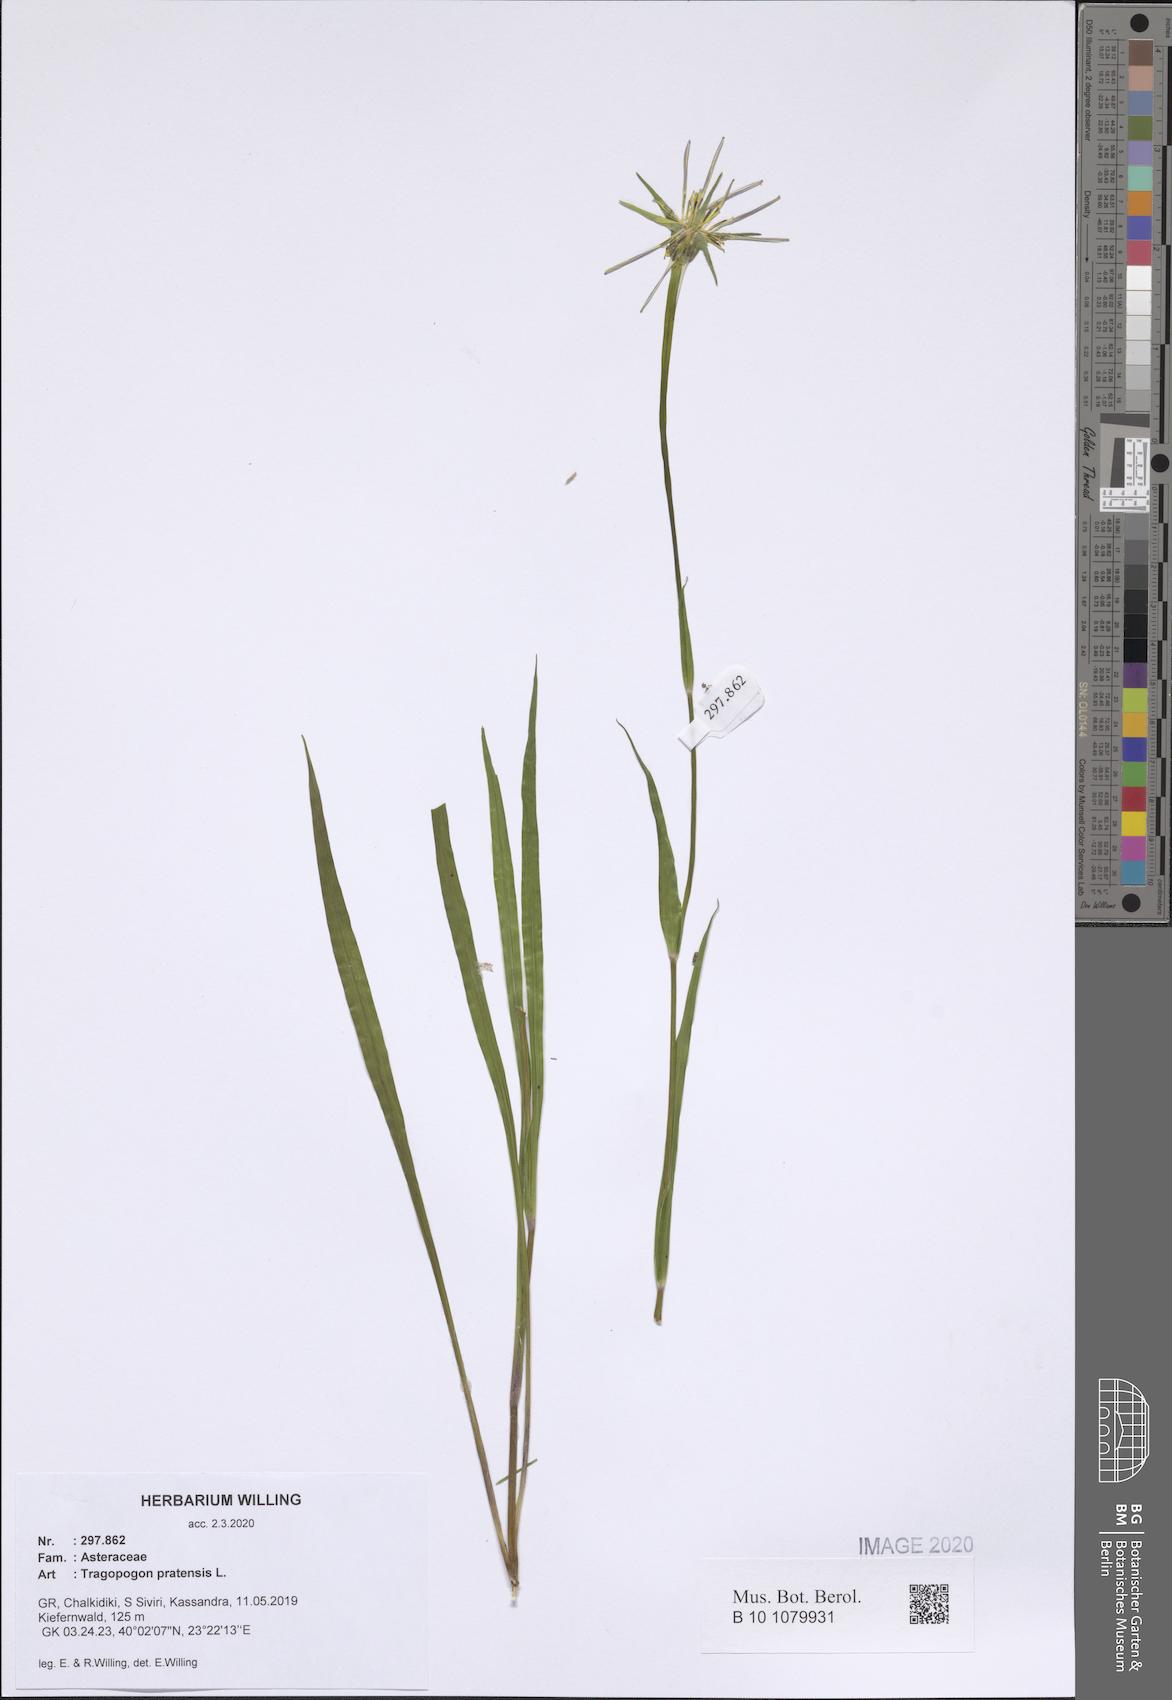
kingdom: Plantae
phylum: Tracheophyta
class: Magnoliopsida
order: Asterales
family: Asteraceae
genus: Tragopogon
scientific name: Tragopogon pratensis
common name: Goat's-beard
